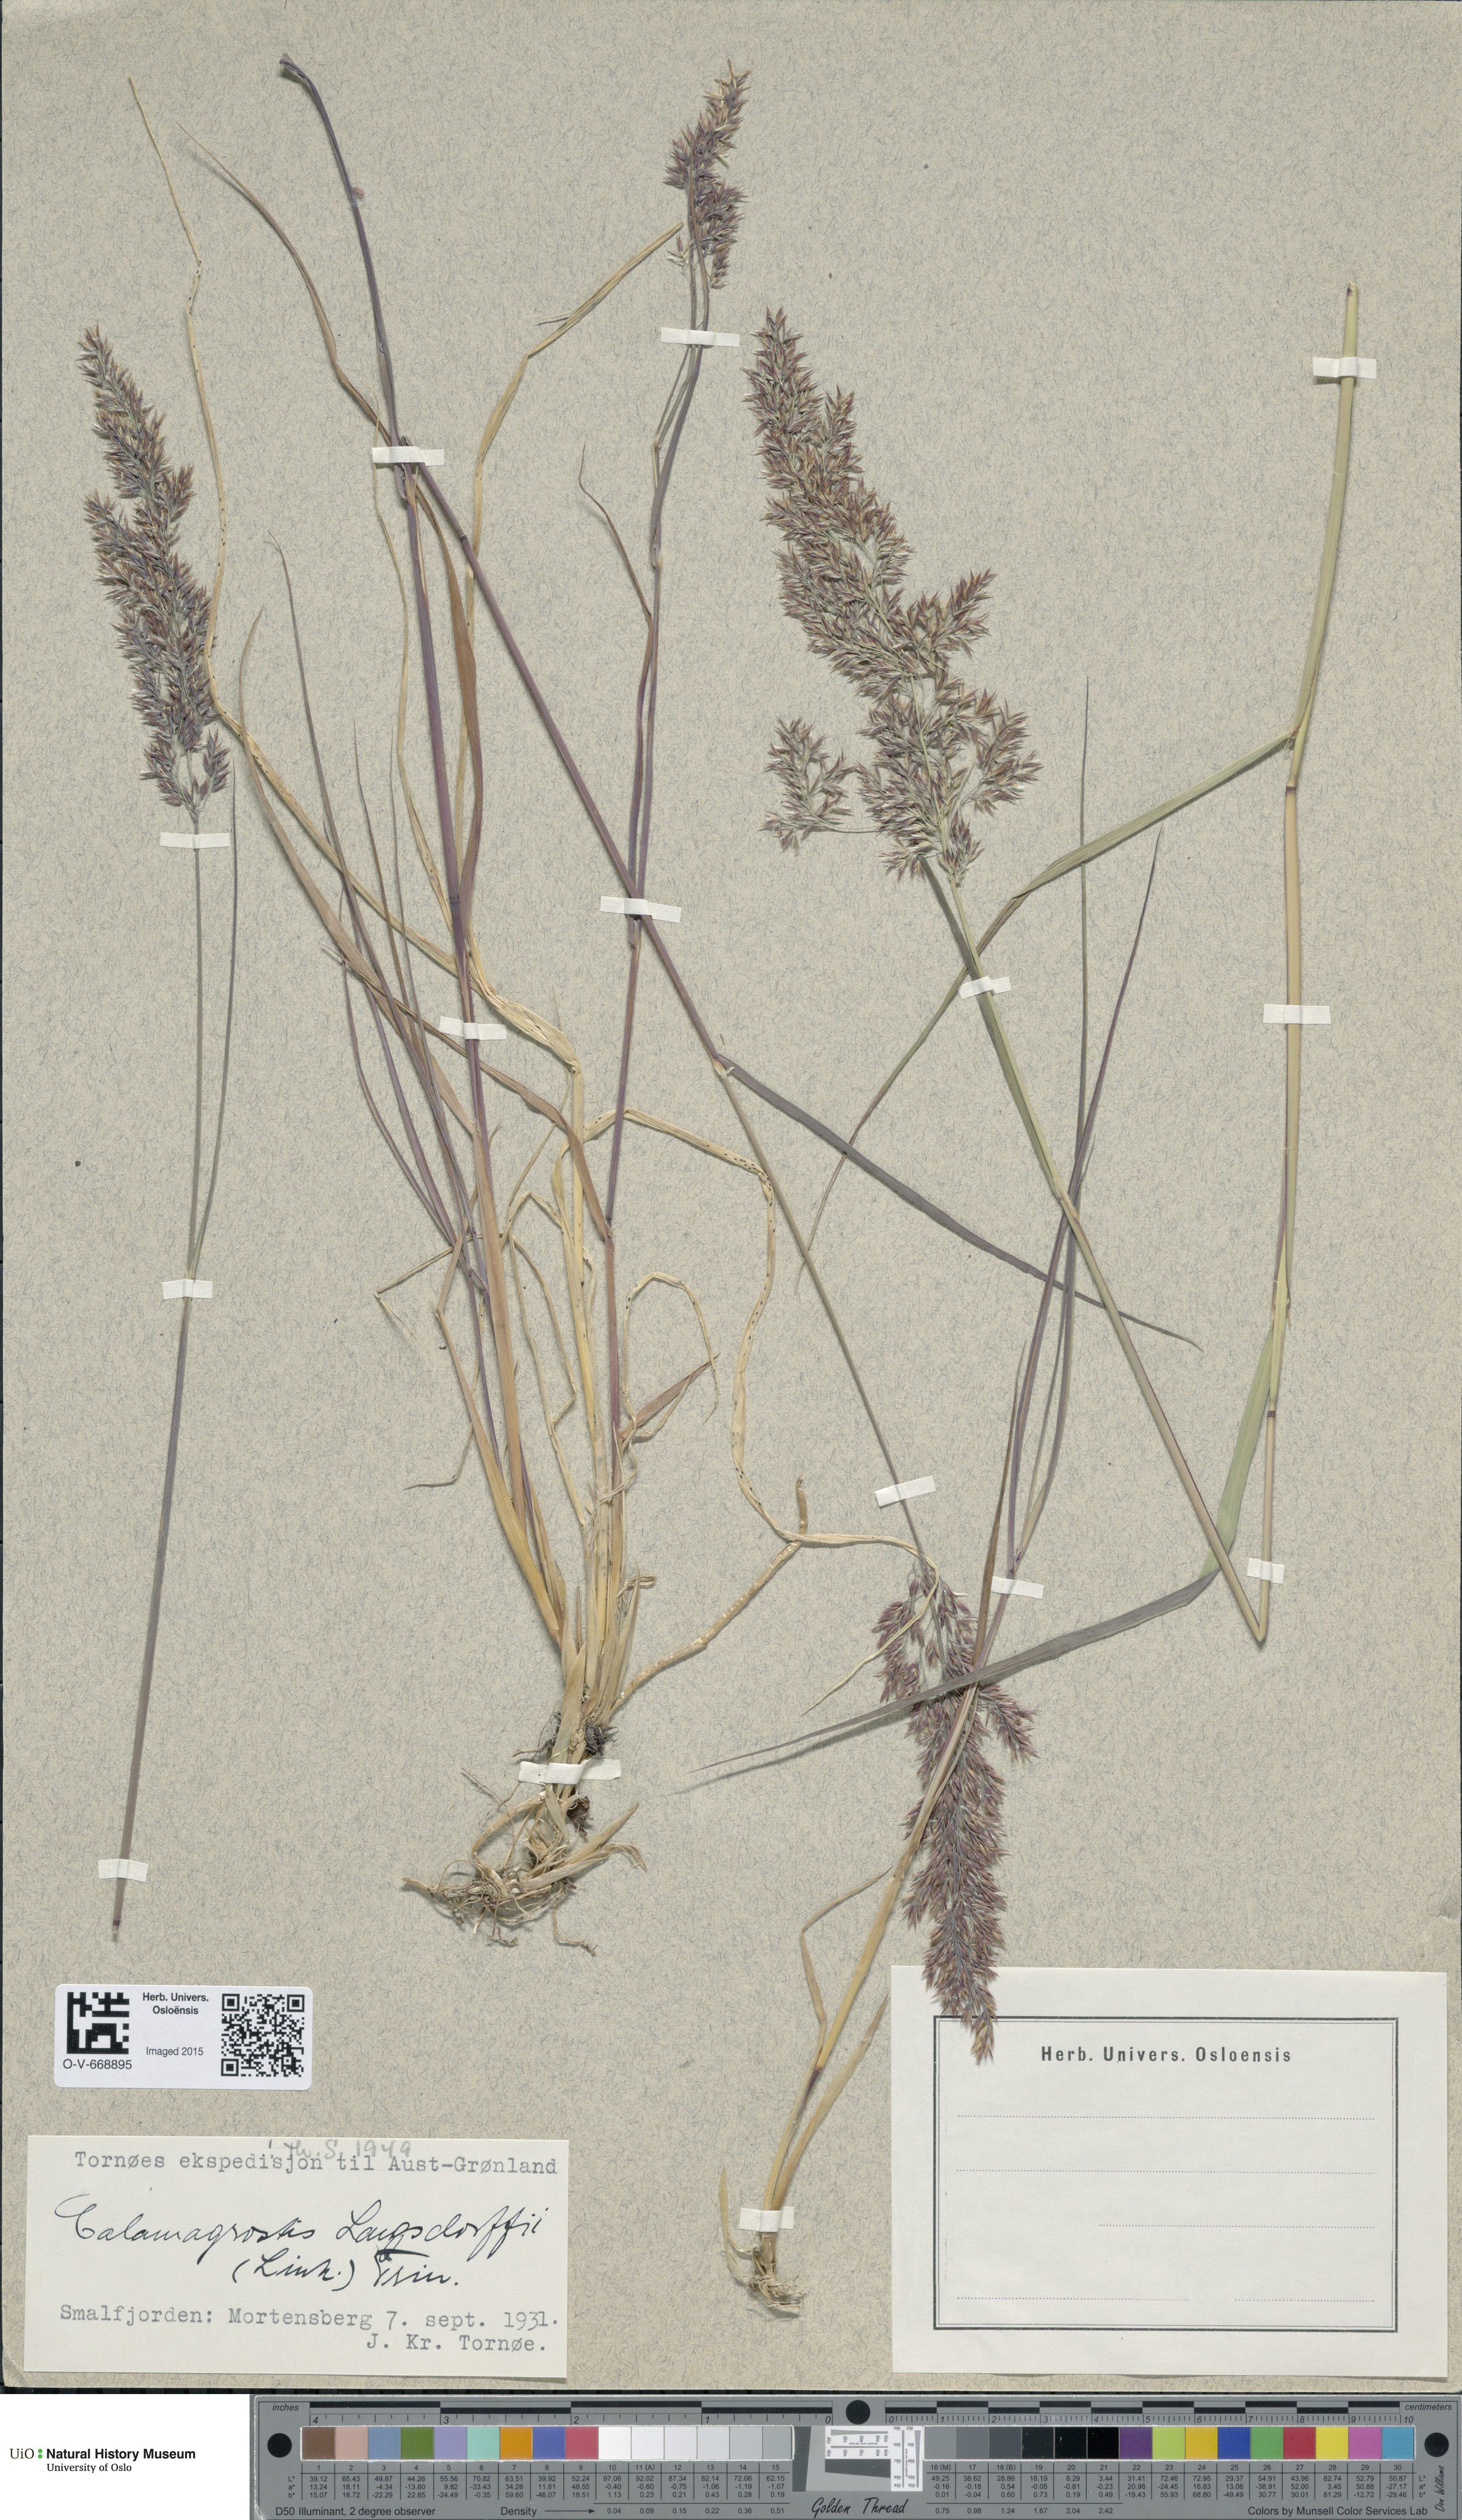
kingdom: Plantae
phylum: Tracheophyta
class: Liliopsida
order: Poales
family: Poaceae
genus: Calamagrostis
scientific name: Calamagrostis purpurea
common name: Scandinavian small-reed
